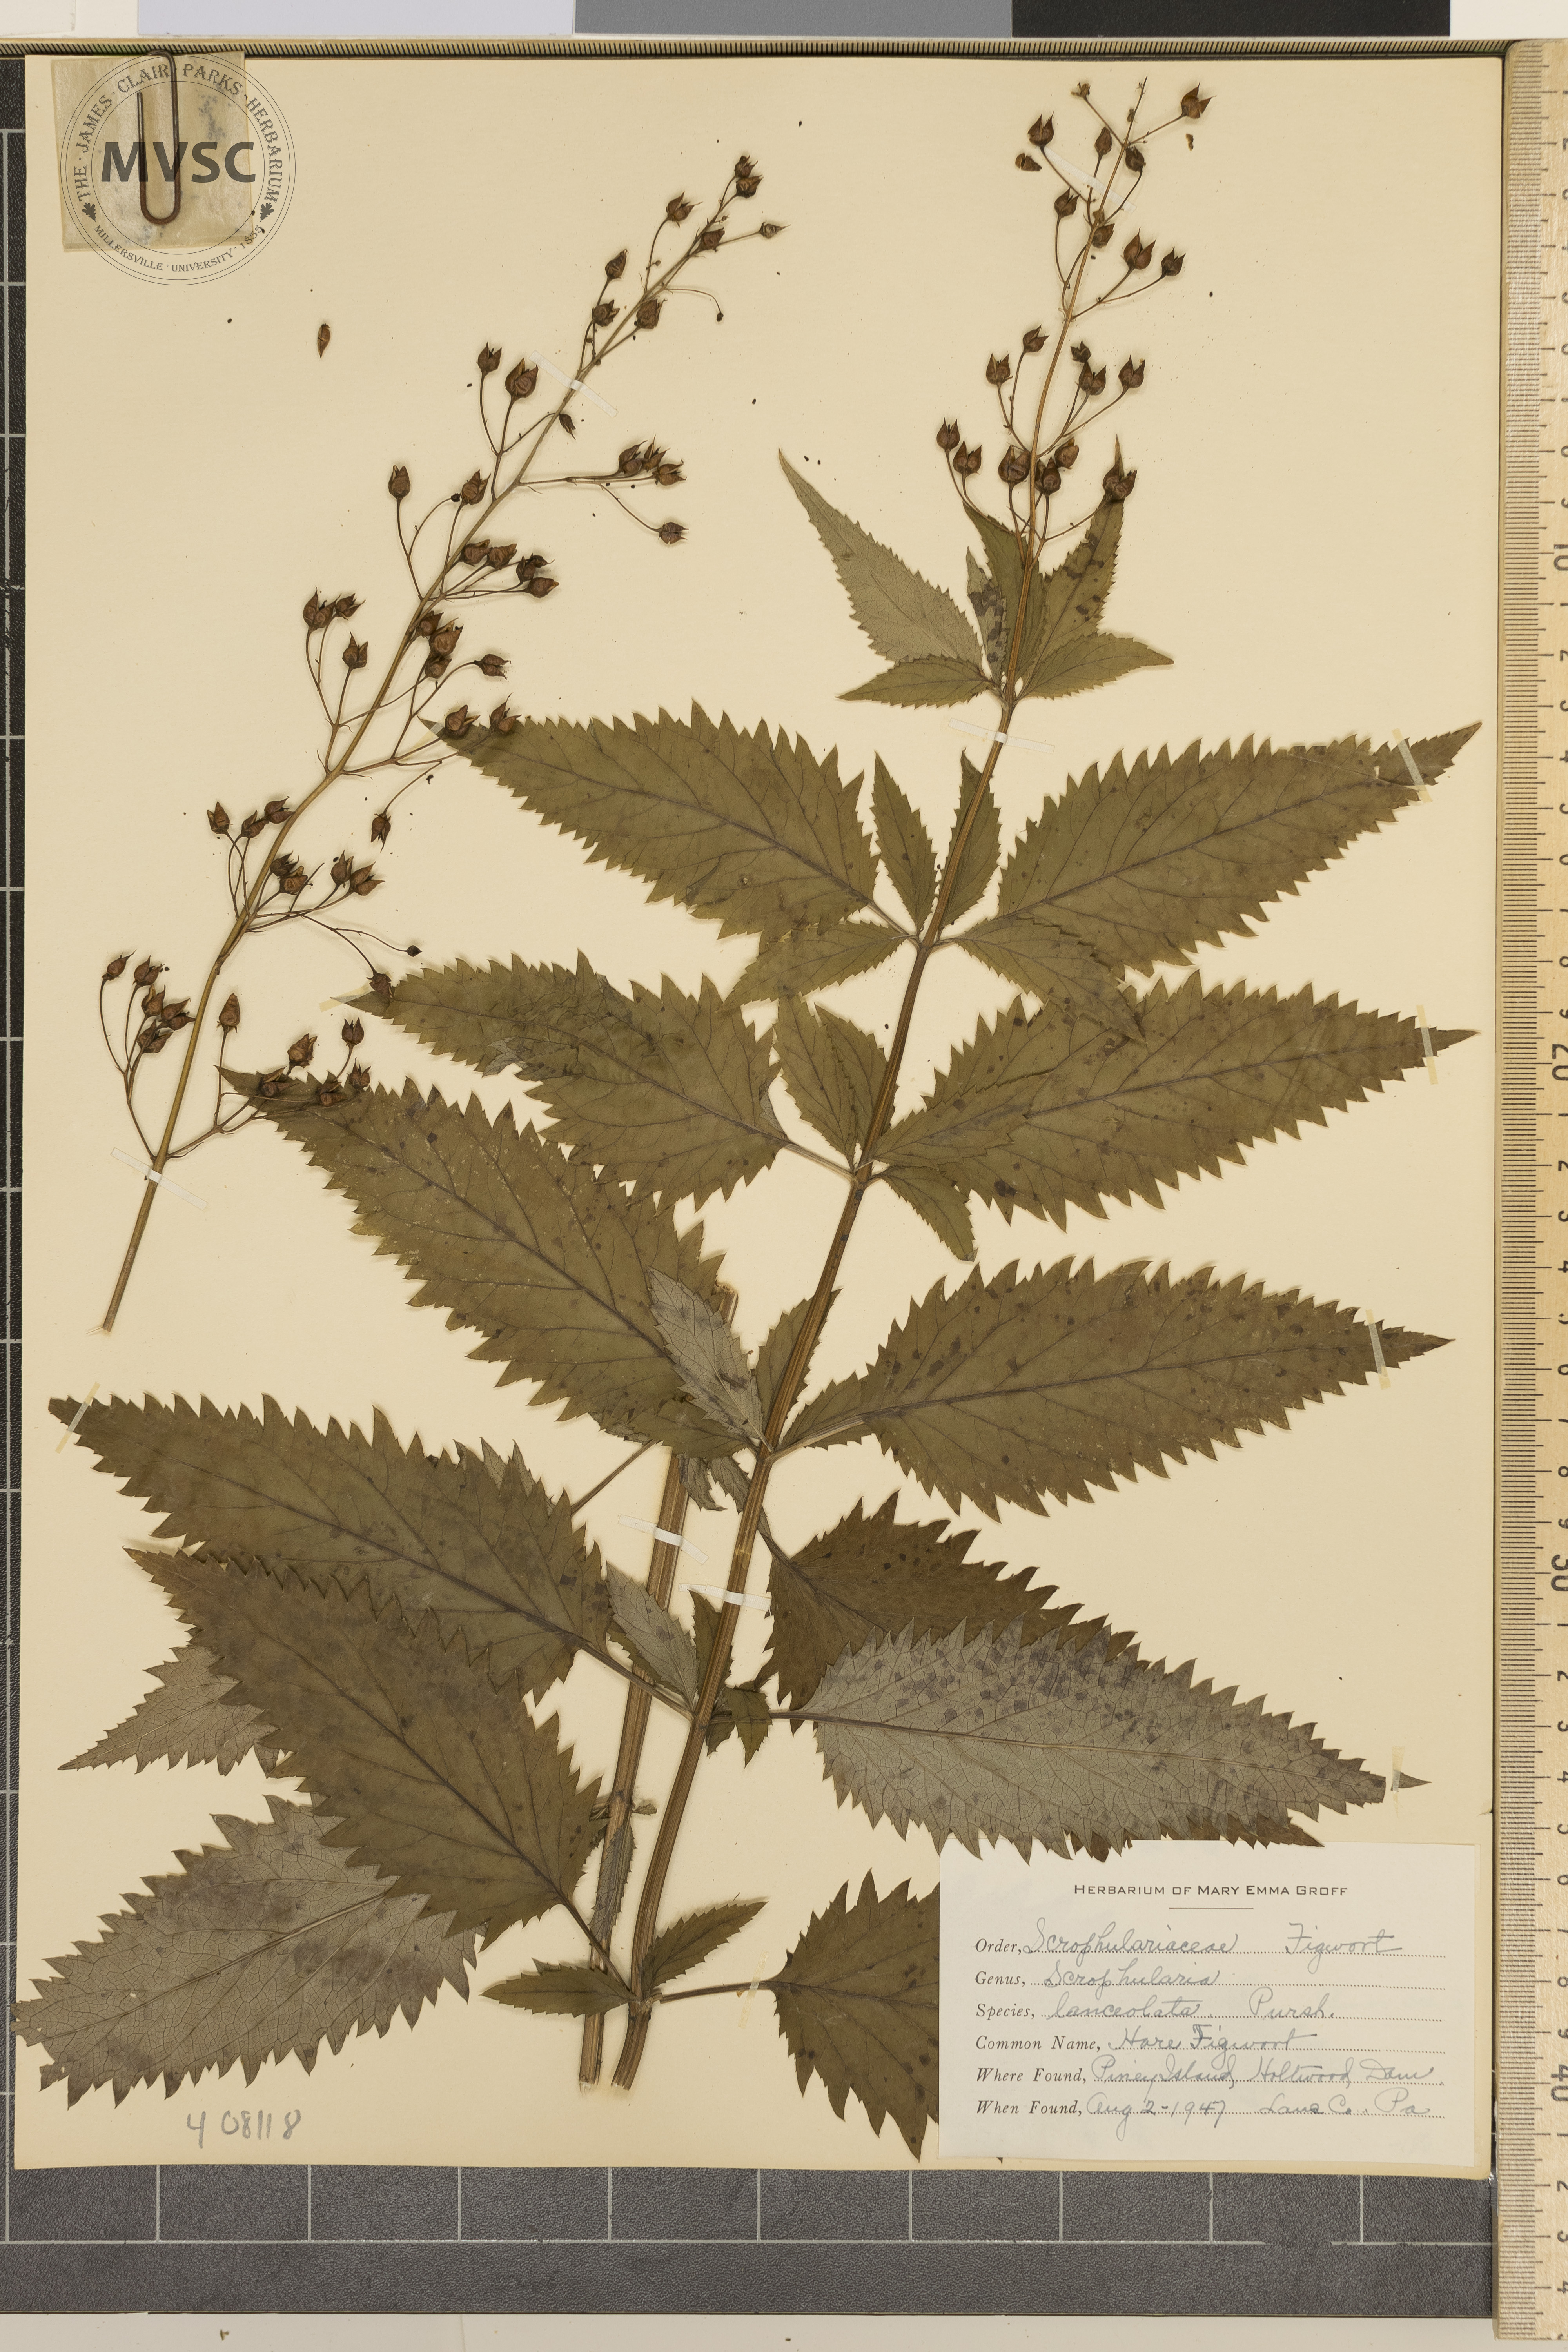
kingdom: Plantae
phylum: Tracheophyta
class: Magnoliopsida
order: Lamiales
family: Scrophulariaceae
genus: Scrophularia
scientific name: Scrophularia lanceolata
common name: Hare Figwort
